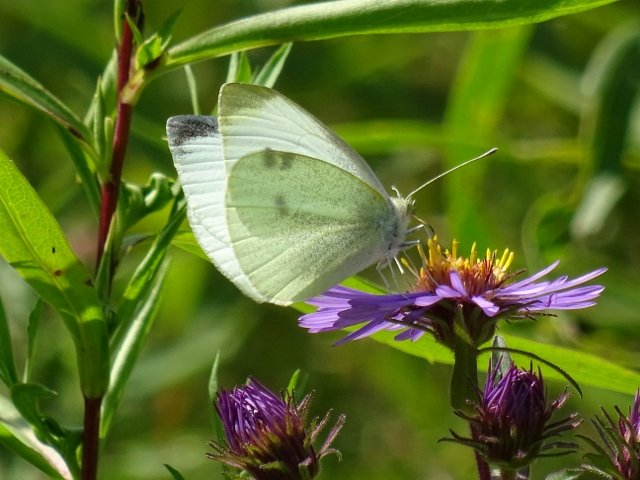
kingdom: Animalia
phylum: Arthropoda
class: Insecta
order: Lepidoptera
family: Pieridae
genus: Pieris
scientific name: Pieris rapae
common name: Cabbage White
